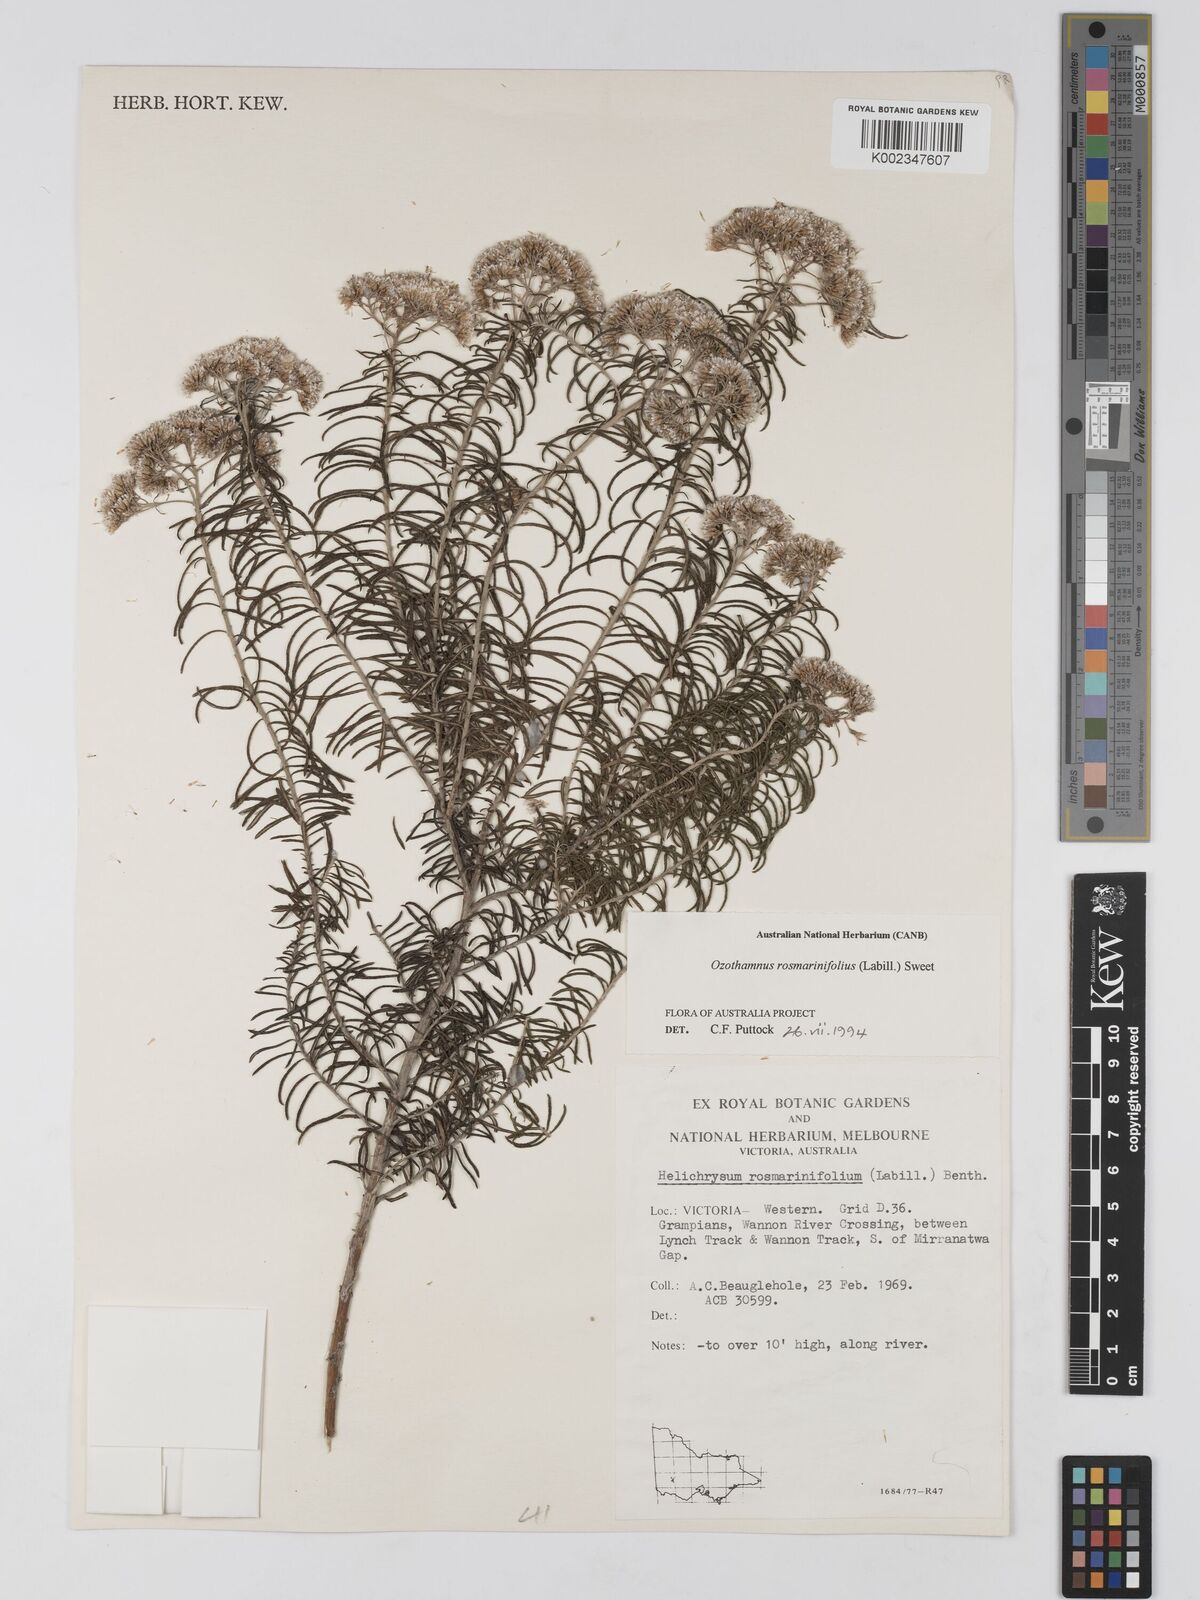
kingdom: Plantae
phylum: Tracheophyta
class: Magnoliopsida
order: Asterales
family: Asteraceae
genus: Ozothamnus
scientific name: Ozothamnus rosmarinifolius
